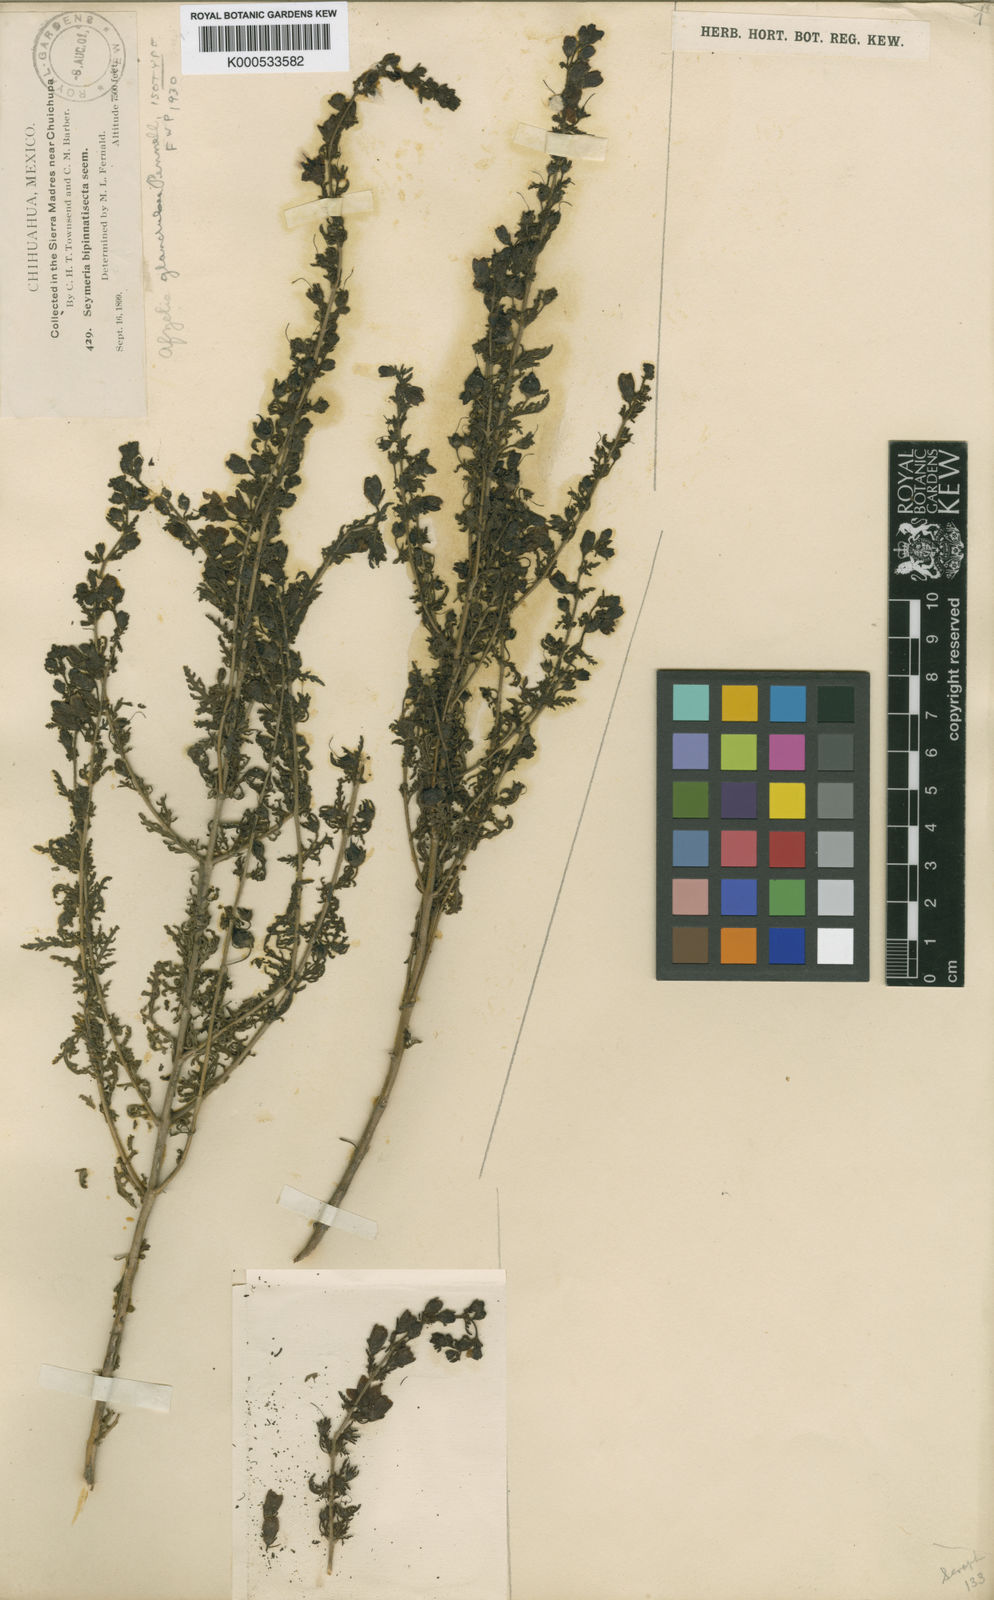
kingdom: Plantae
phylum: Tracheophyta
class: Magnoliopsida
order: Lamiales
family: Orobanchaceae
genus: Seymeria
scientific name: Seymeria bipinnatisecta
